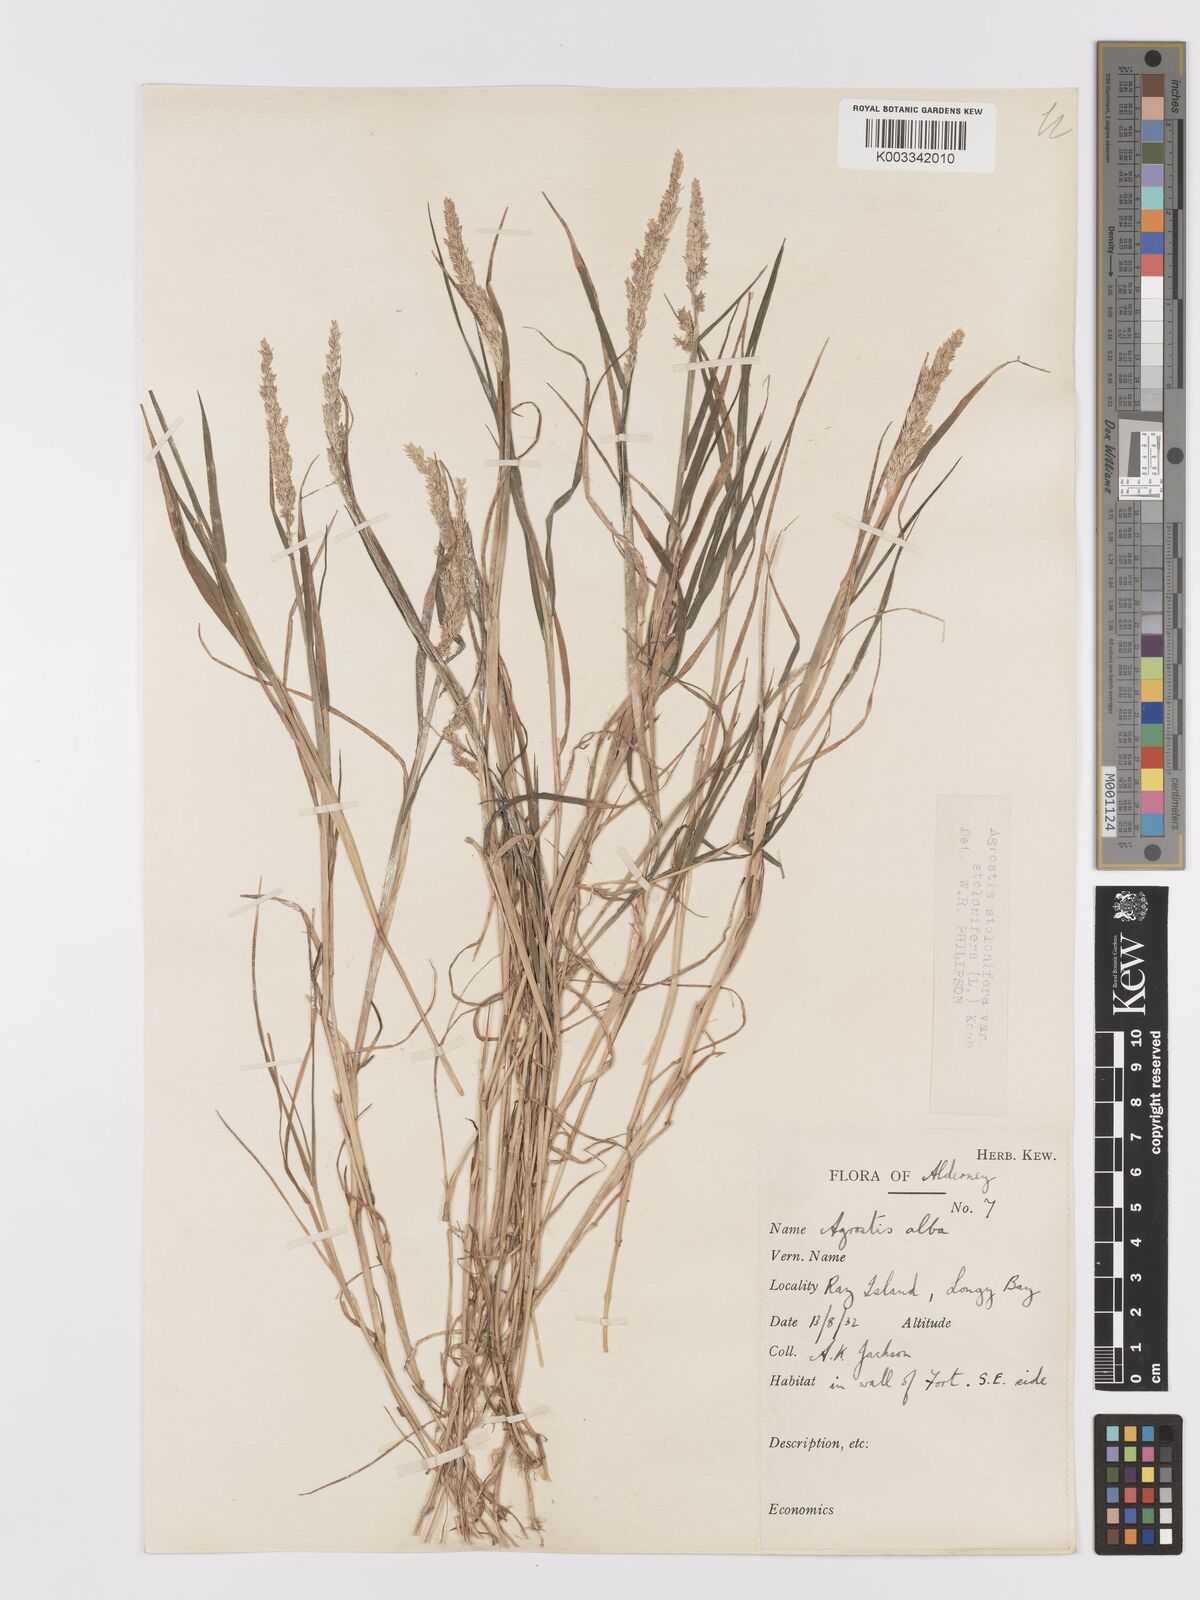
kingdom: Plantae
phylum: Tracheophyta
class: Liliopsida
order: Poales
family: Poaceae
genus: Agrostis
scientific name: Agrostis stolonifera
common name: Creeping bentgrass
